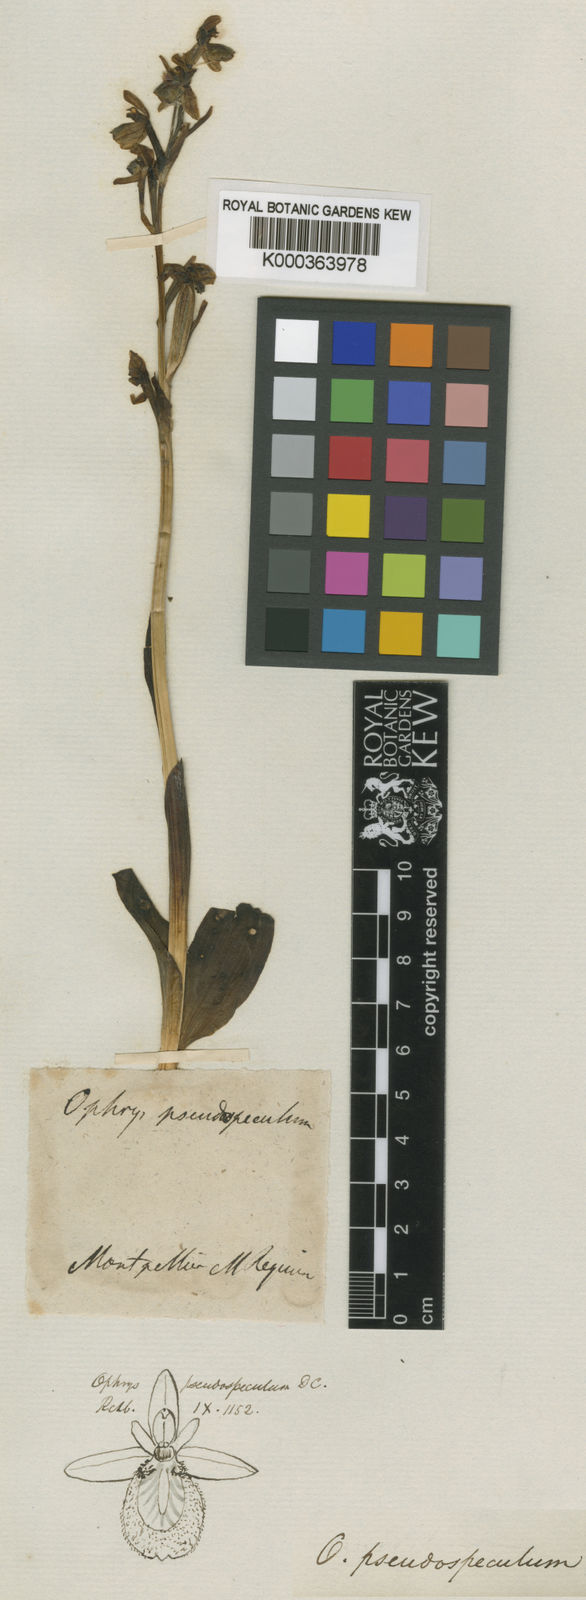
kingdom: Plantae
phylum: Tracheophyta
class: Liliopsida
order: Asparagales
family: Orchidaceae
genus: Ophrys
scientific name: Ophrys pseudospeculum
